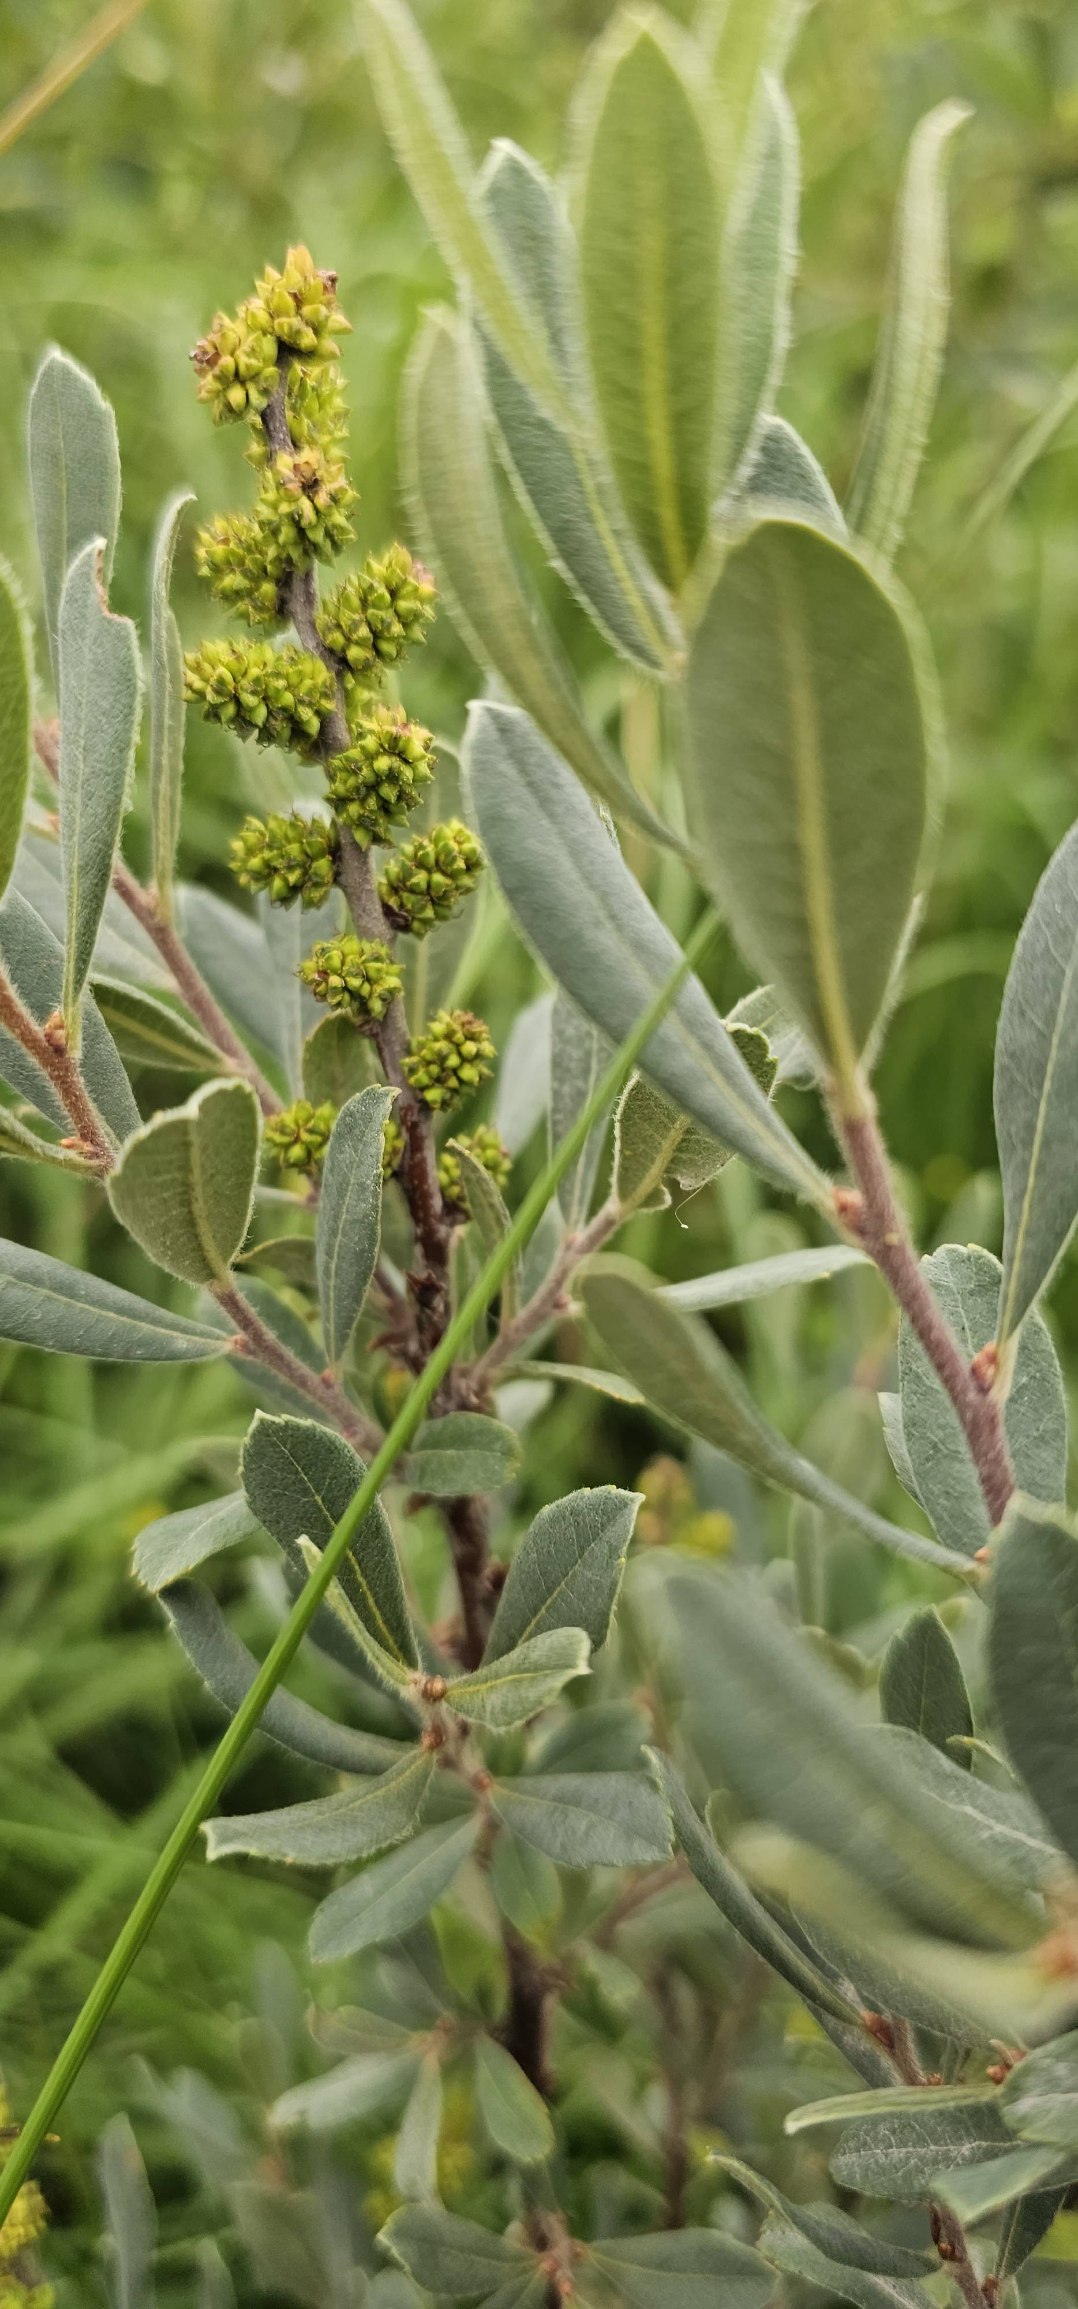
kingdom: Plantae
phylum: Tracheophyta
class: Magnoliopsida
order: Fagales
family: Myricaceae
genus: Myrica
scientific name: Myrica gale
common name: Pors
